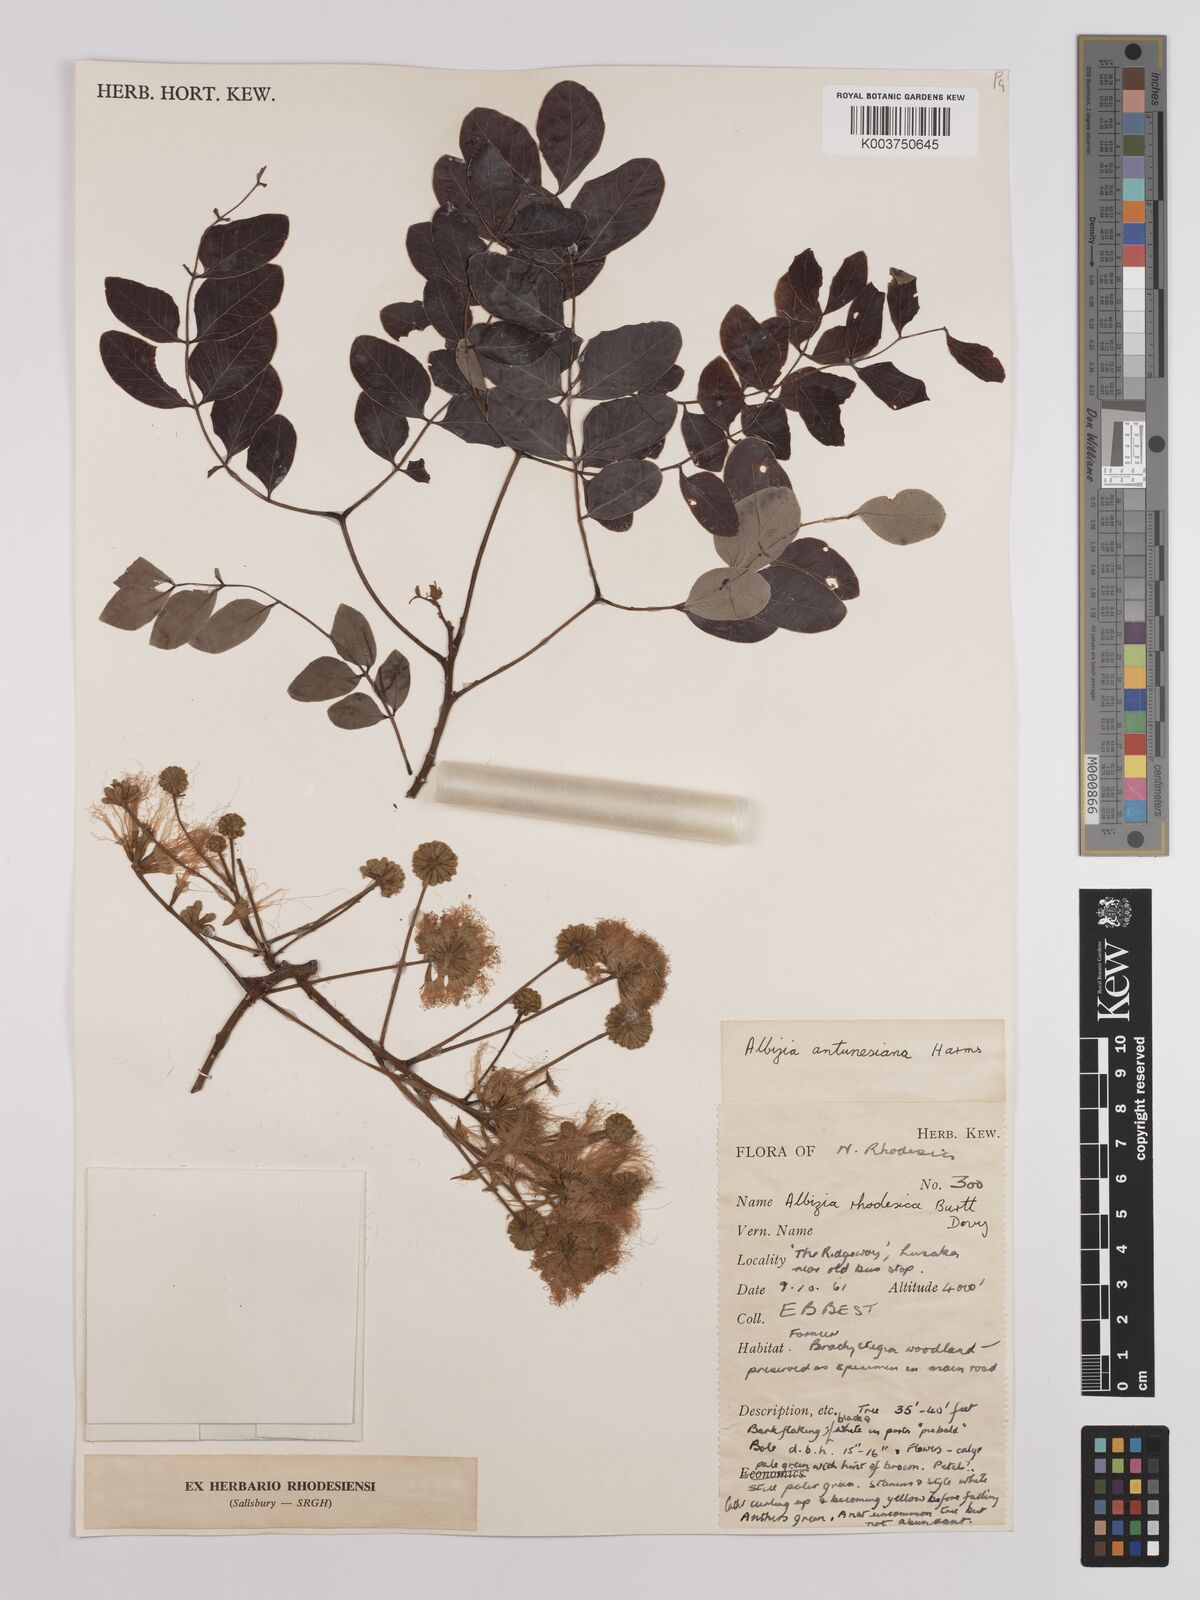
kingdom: Plantae
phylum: Tracheophyta
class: Magnoliopsida
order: Fabales
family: Fabaceae
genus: Albizia
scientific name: Albizia antunesiana
